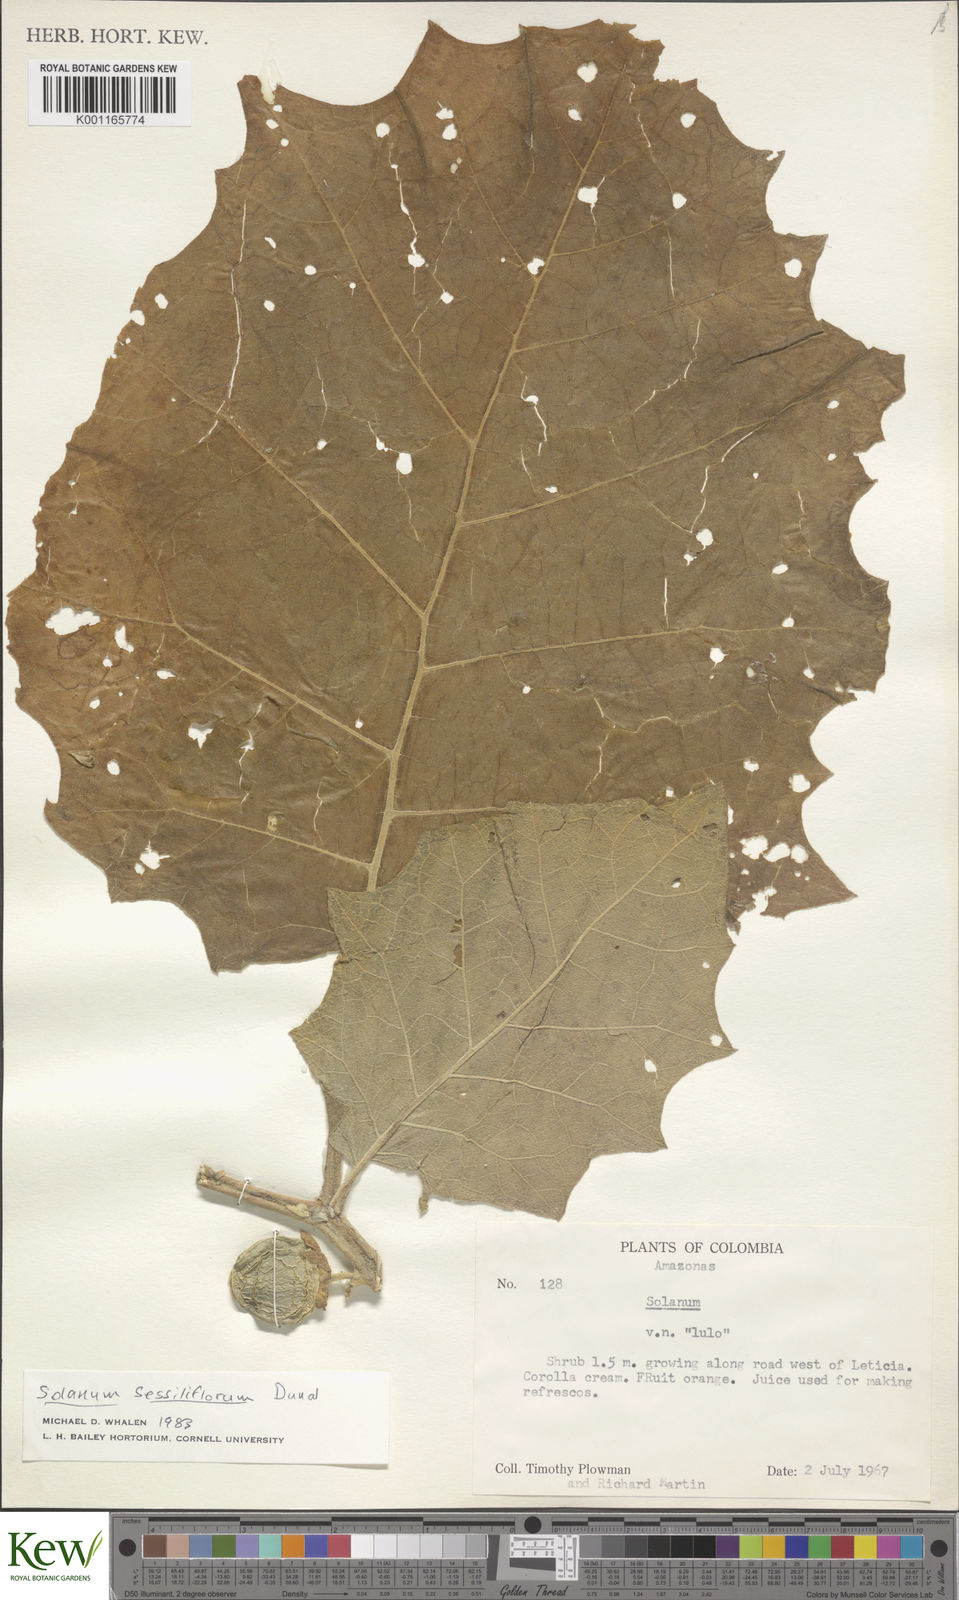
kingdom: Plantae
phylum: Tracheophyta
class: Magnoliopsida
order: Solanales
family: Solanaceae
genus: Solanum
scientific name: Solanum sessiliflorum
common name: Orinoco-apple
